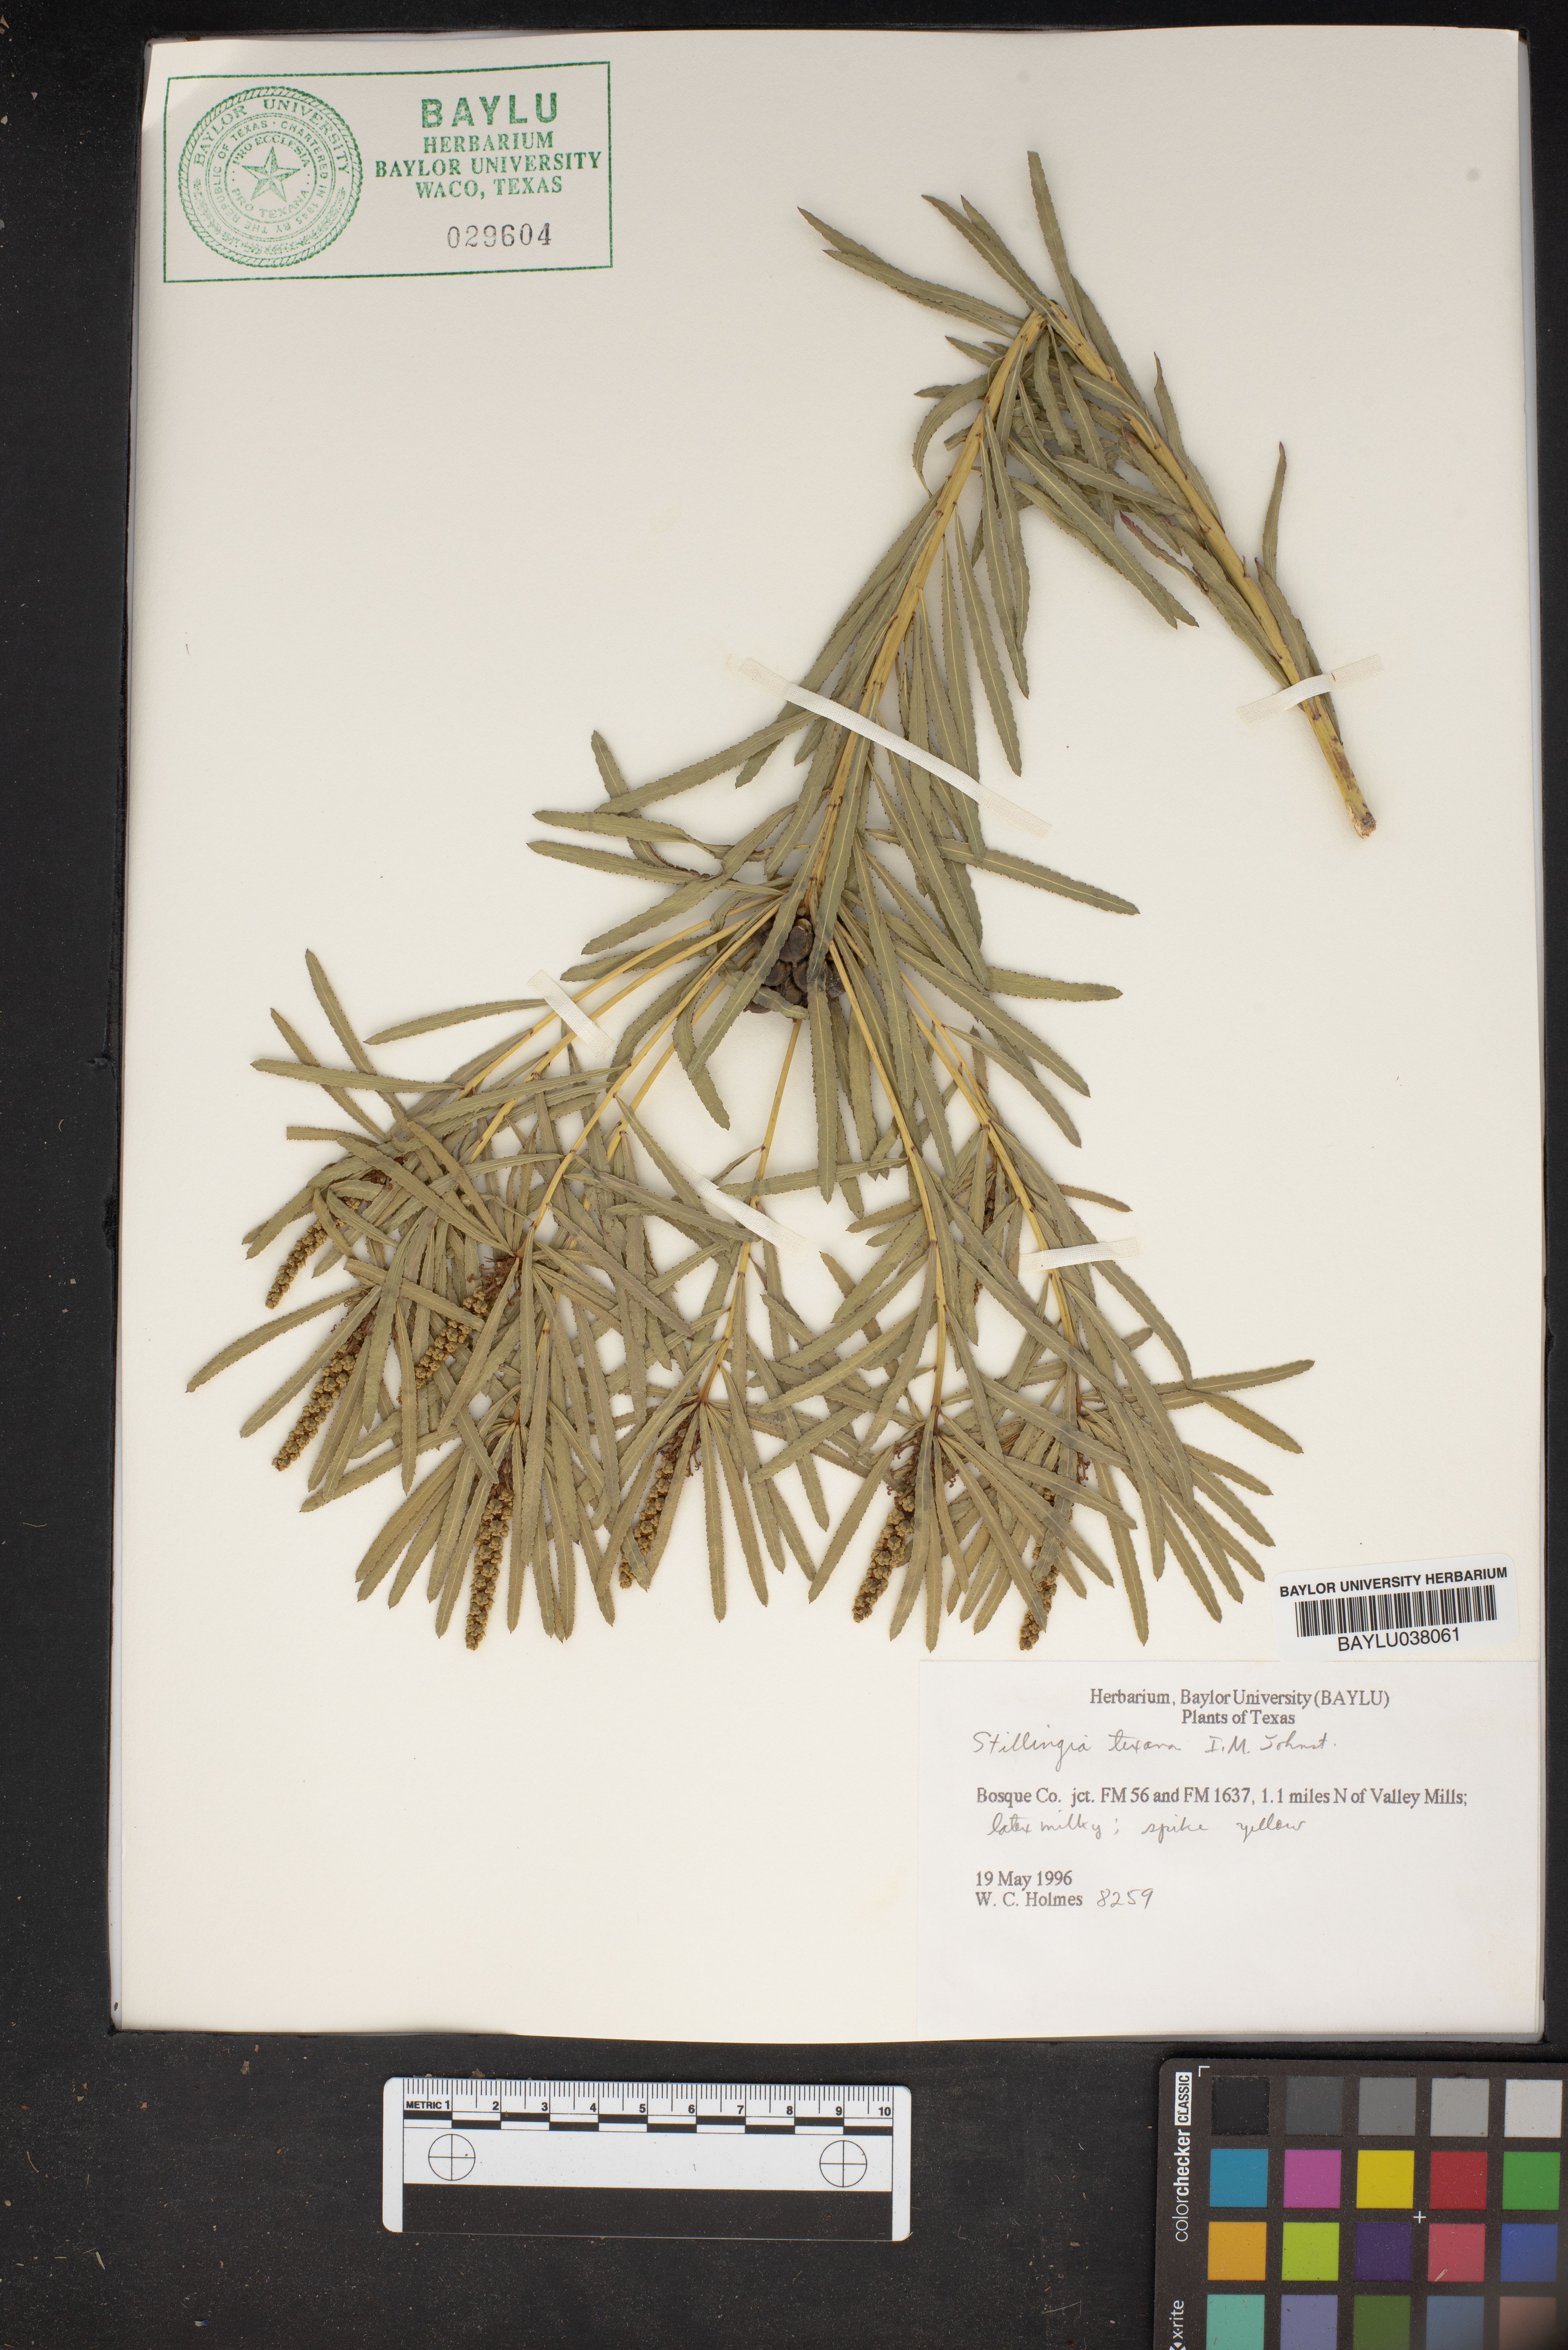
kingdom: Plantae
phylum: Tracheophyta
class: Magnoliopsida
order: Malpighiales
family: Euphorbiaceae
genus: Stillingia
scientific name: Stillingia texana
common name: Texas stillingia
